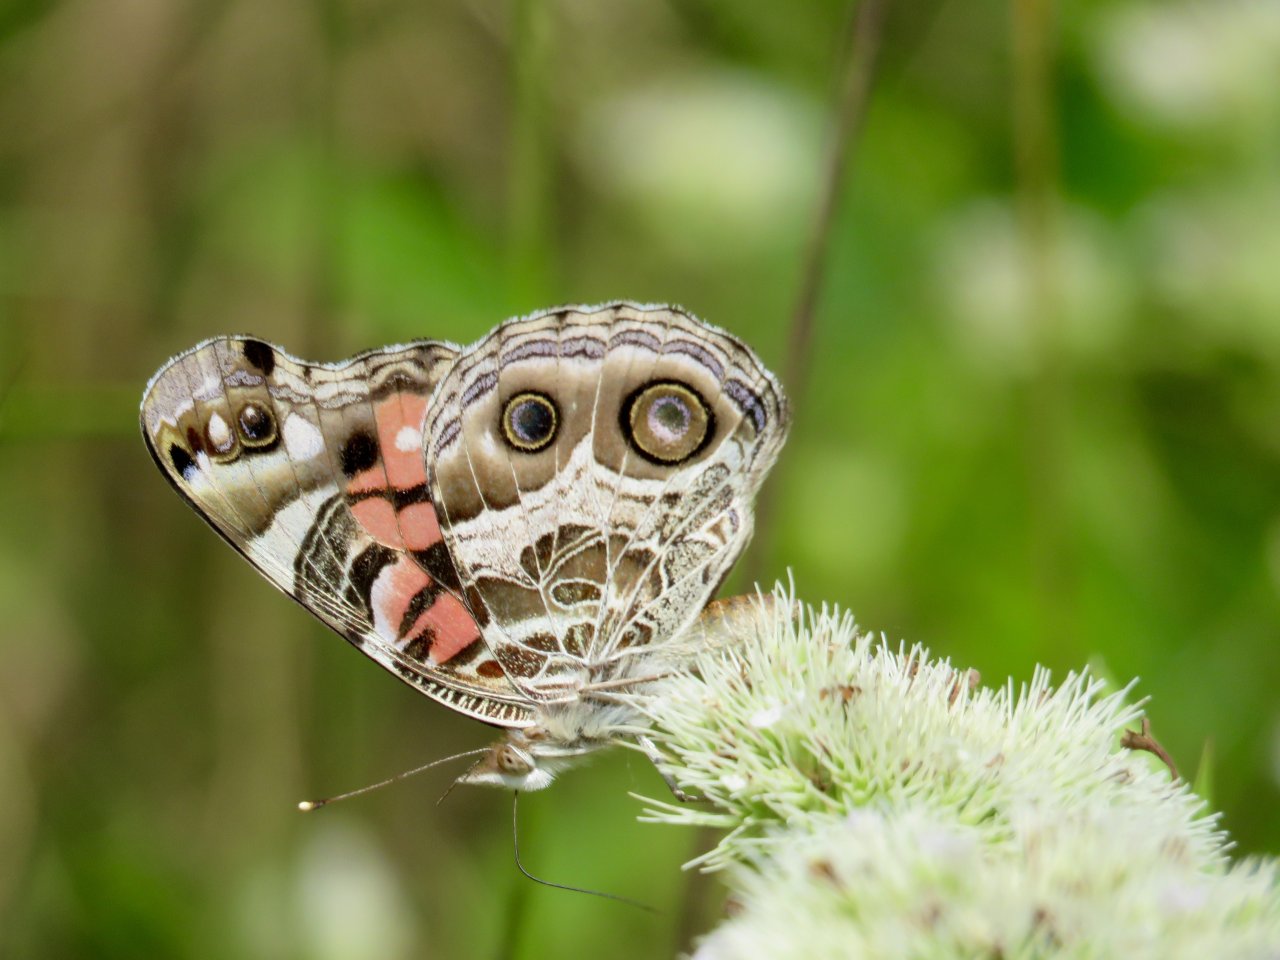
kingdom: Animalia
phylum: Arthropoda
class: Insecta
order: Lepidoptera
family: Nymphalidae
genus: Vanessa
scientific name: Vanessa virginiensis
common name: American Lady
